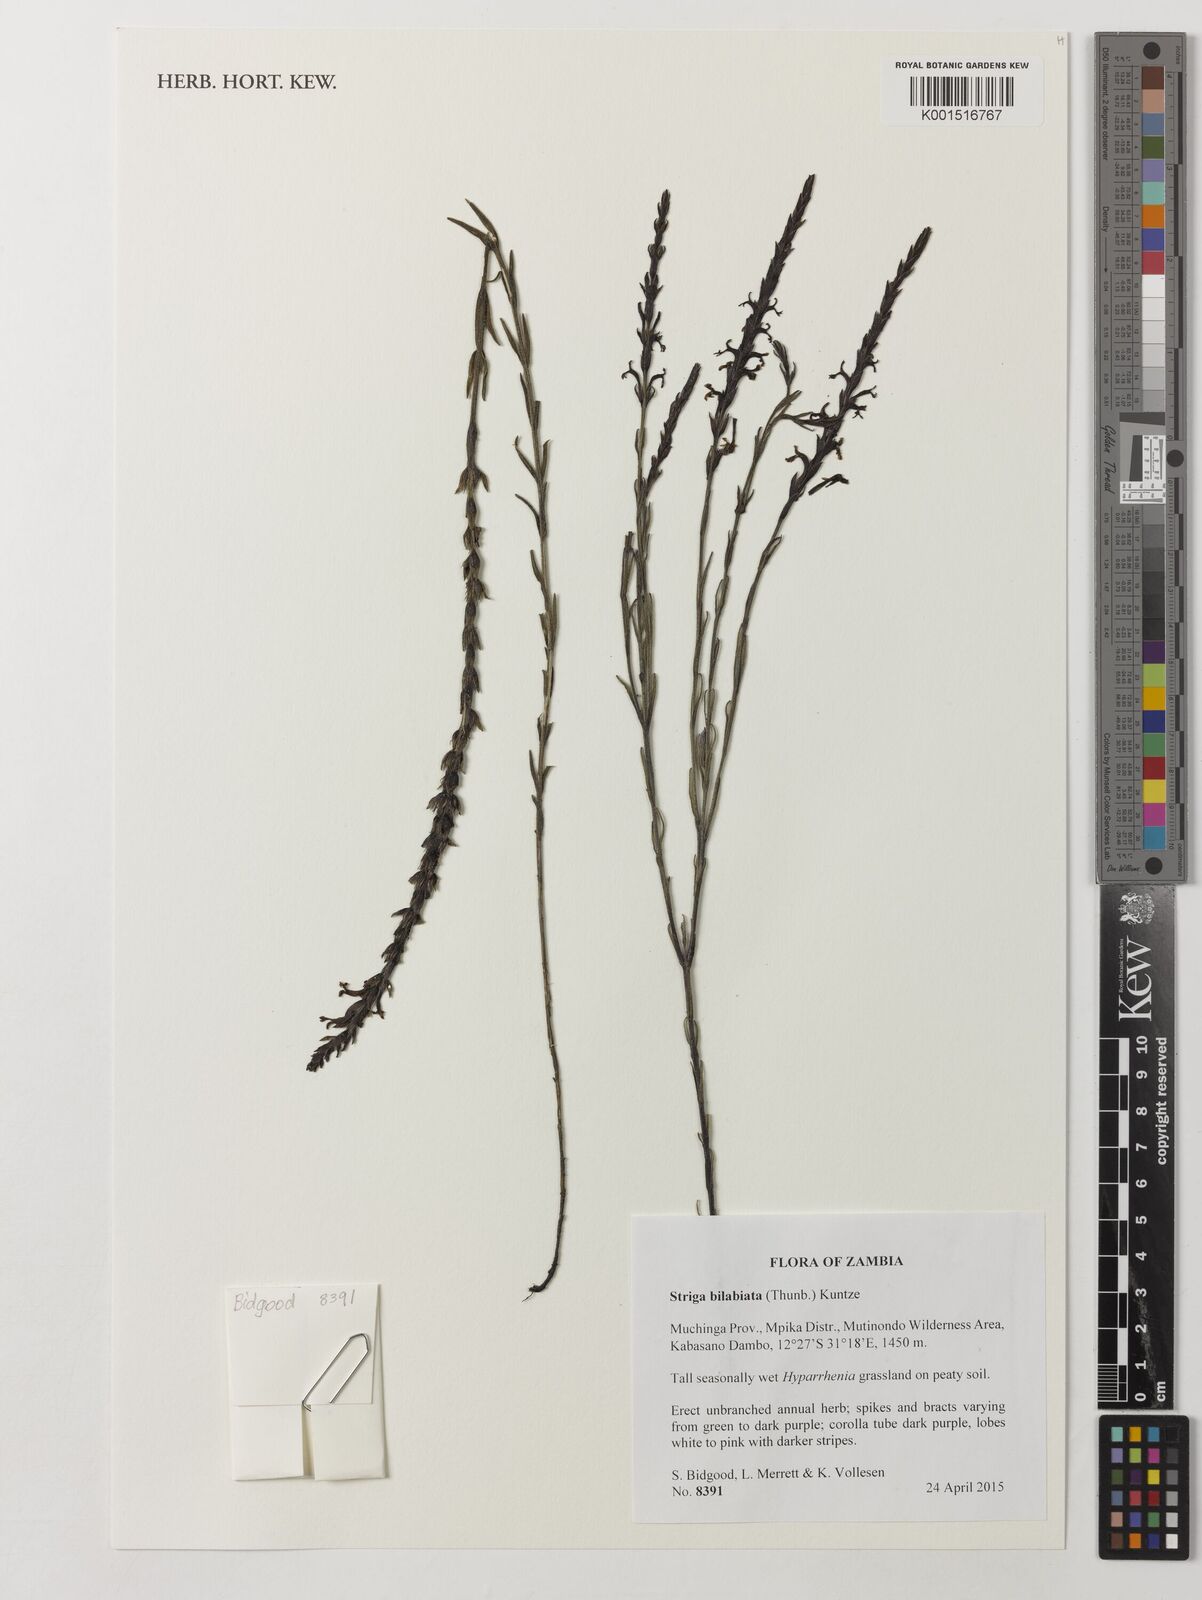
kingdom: Plantae
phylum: Tracheophyta
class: Magnoliopsida
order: Lamiales
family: Orobanchaceae
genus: Striga
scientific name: Striga bilabiata
